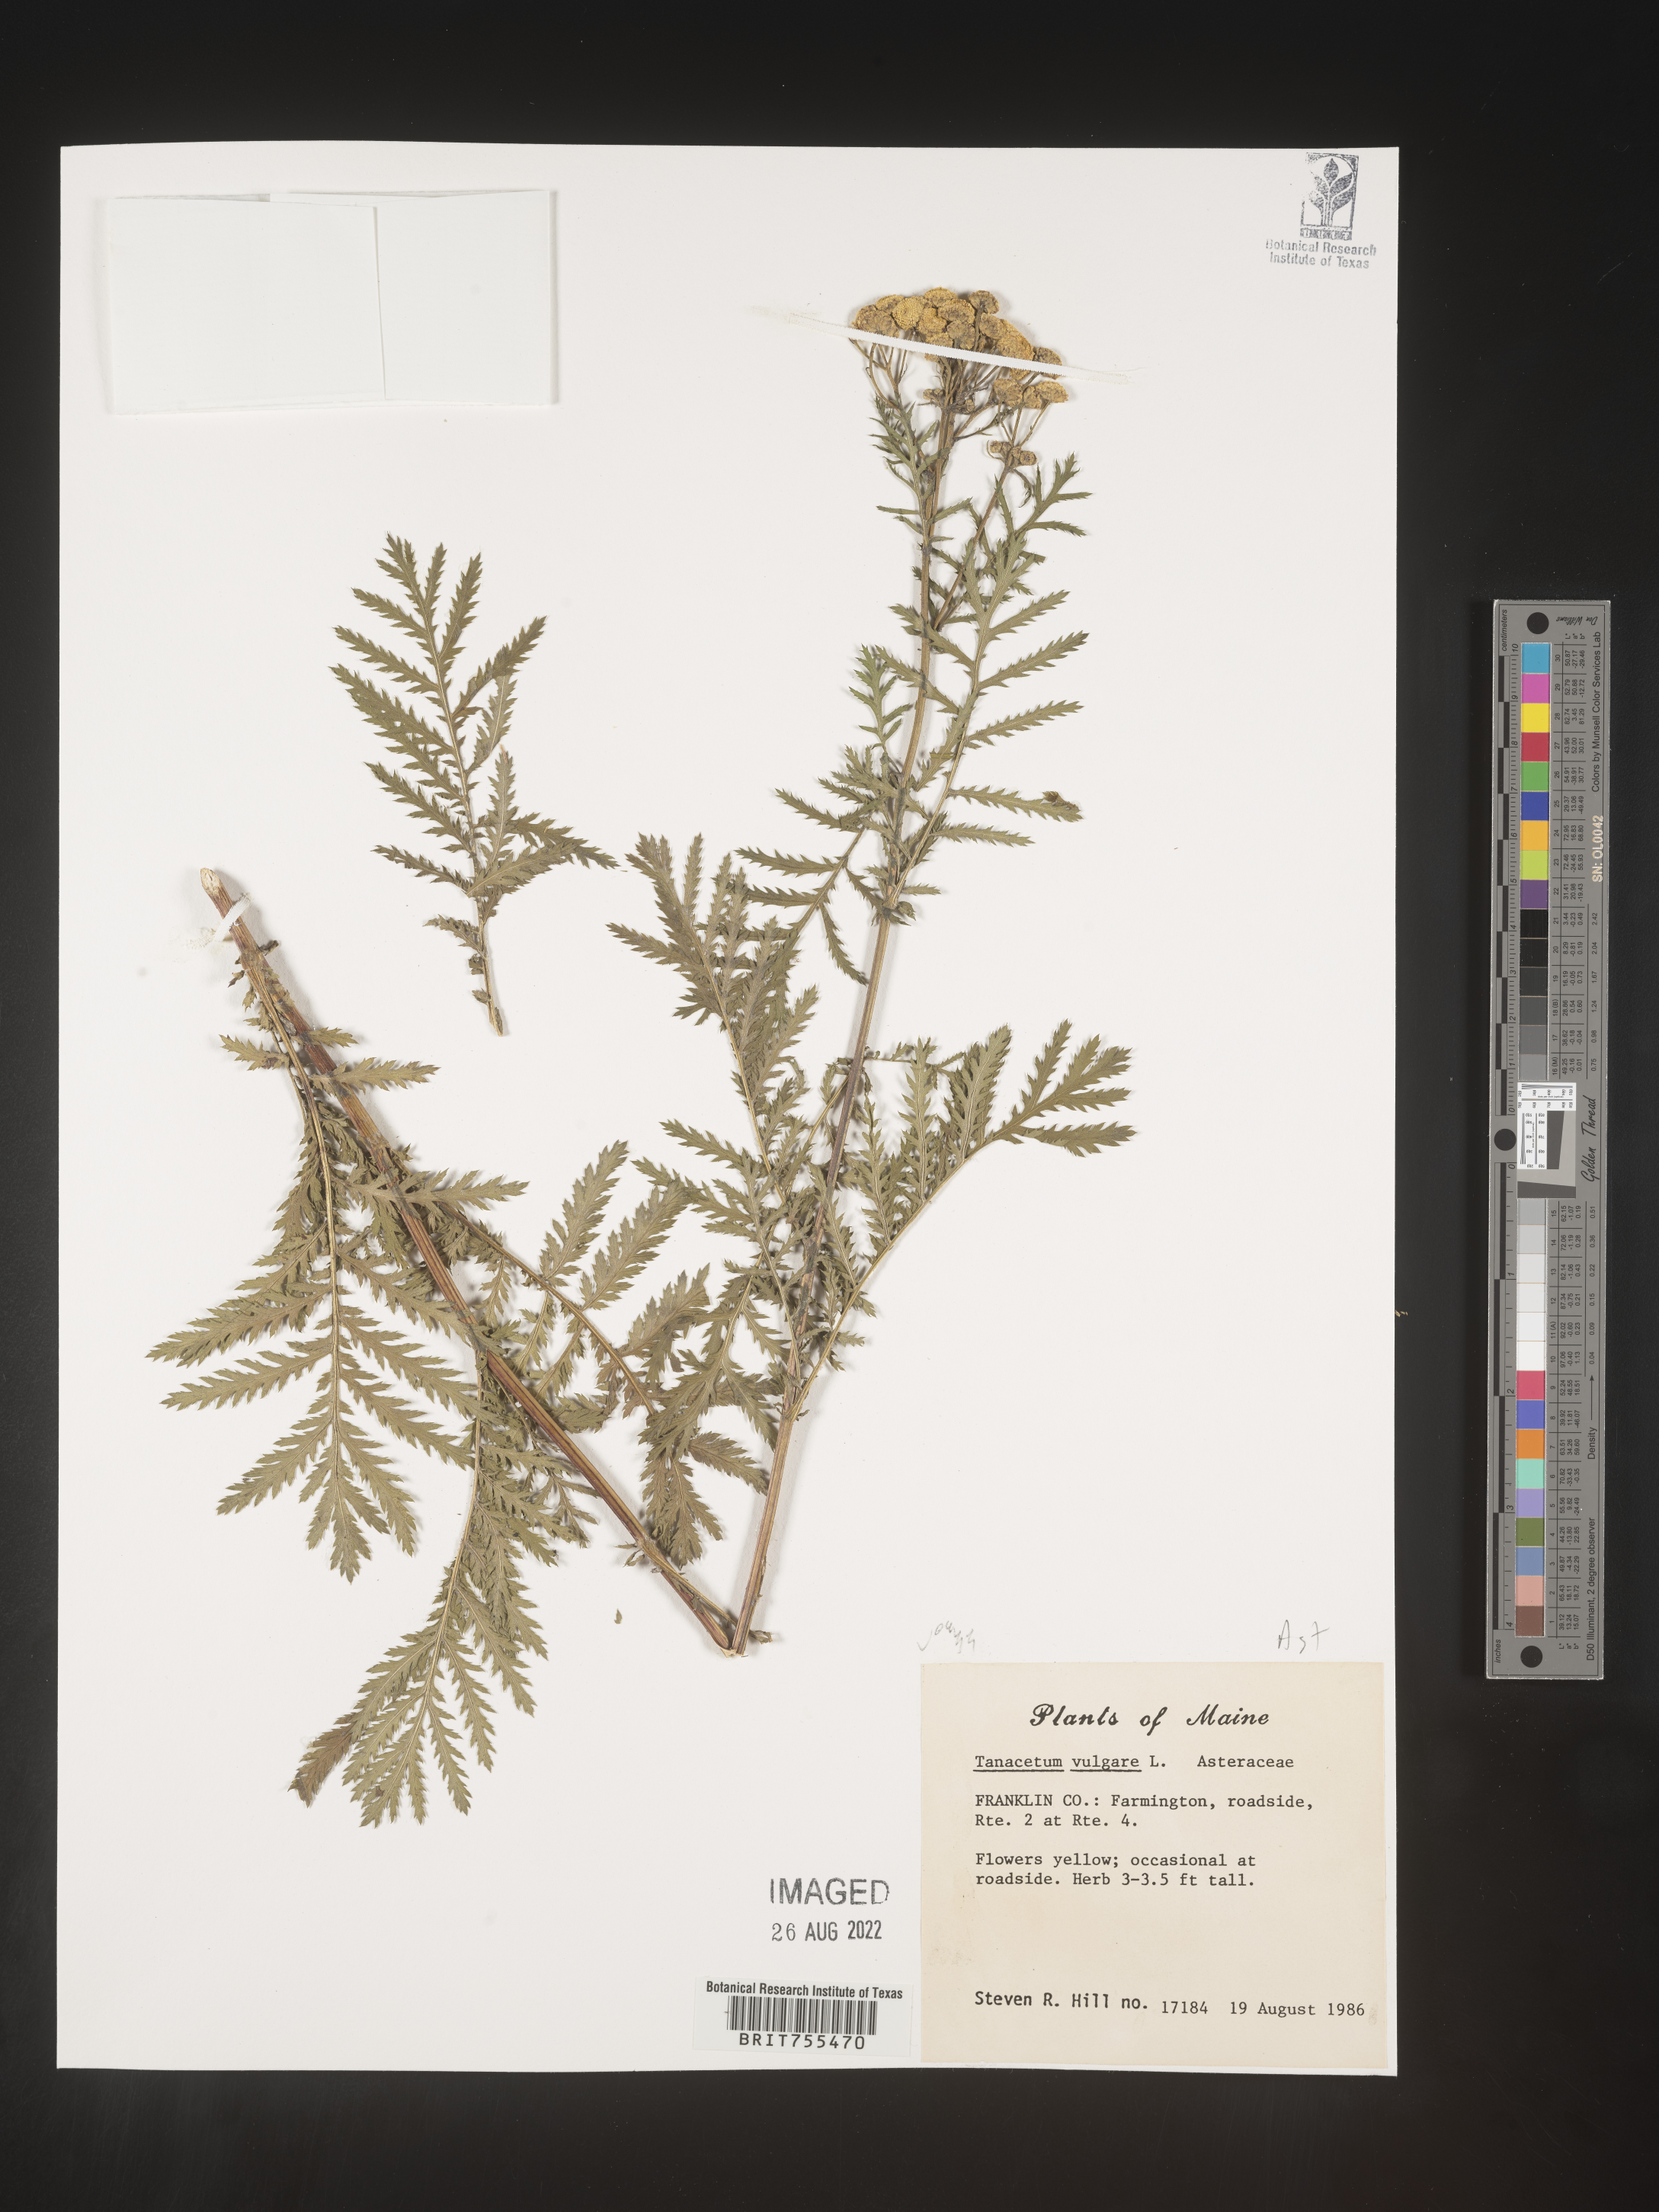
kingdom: Plantae
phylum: Tracheophyta
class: Magnoliopsida
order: Asterales
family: Asteraceae
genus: Tanacetum
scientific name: Tanacetum vulgare
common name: Common tansy
